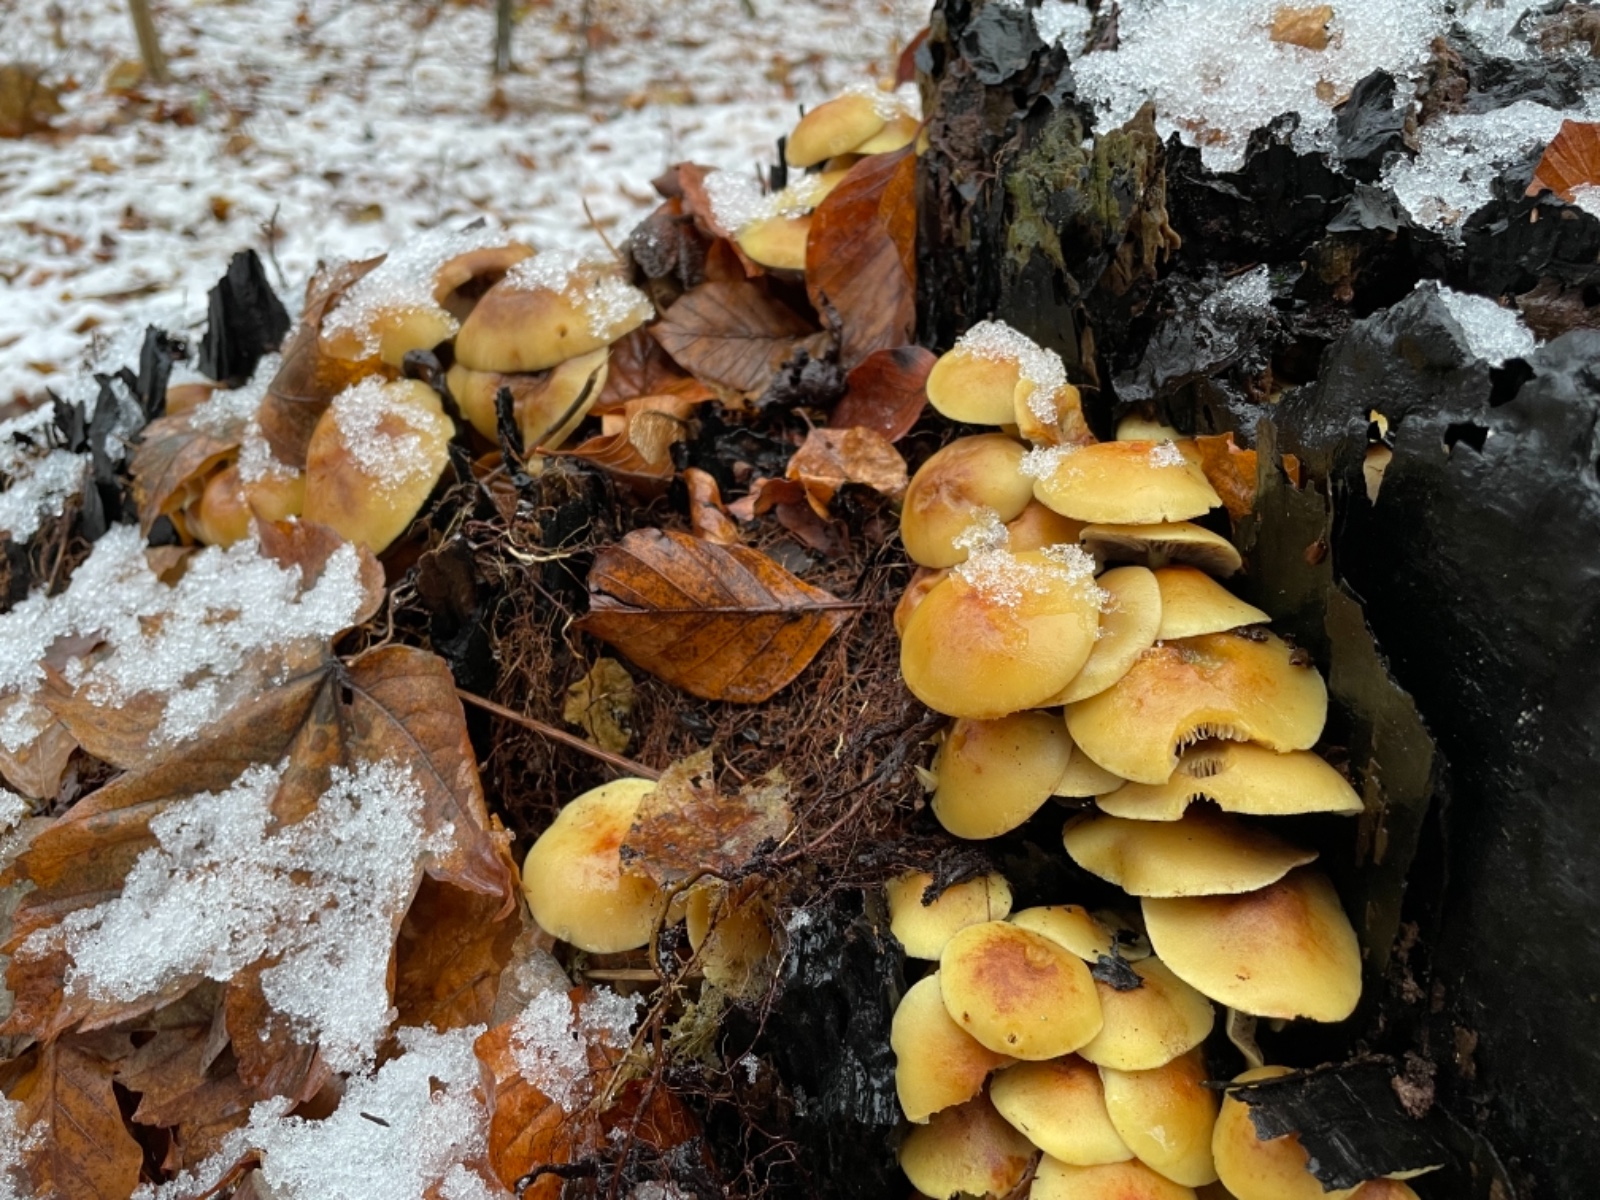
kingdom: Fungi
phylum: Basidiomycota
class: Agaricomycetes
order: Agaricales
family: Strophariaceae
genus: Hypholoma
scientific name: Hypholoma fasciculare
